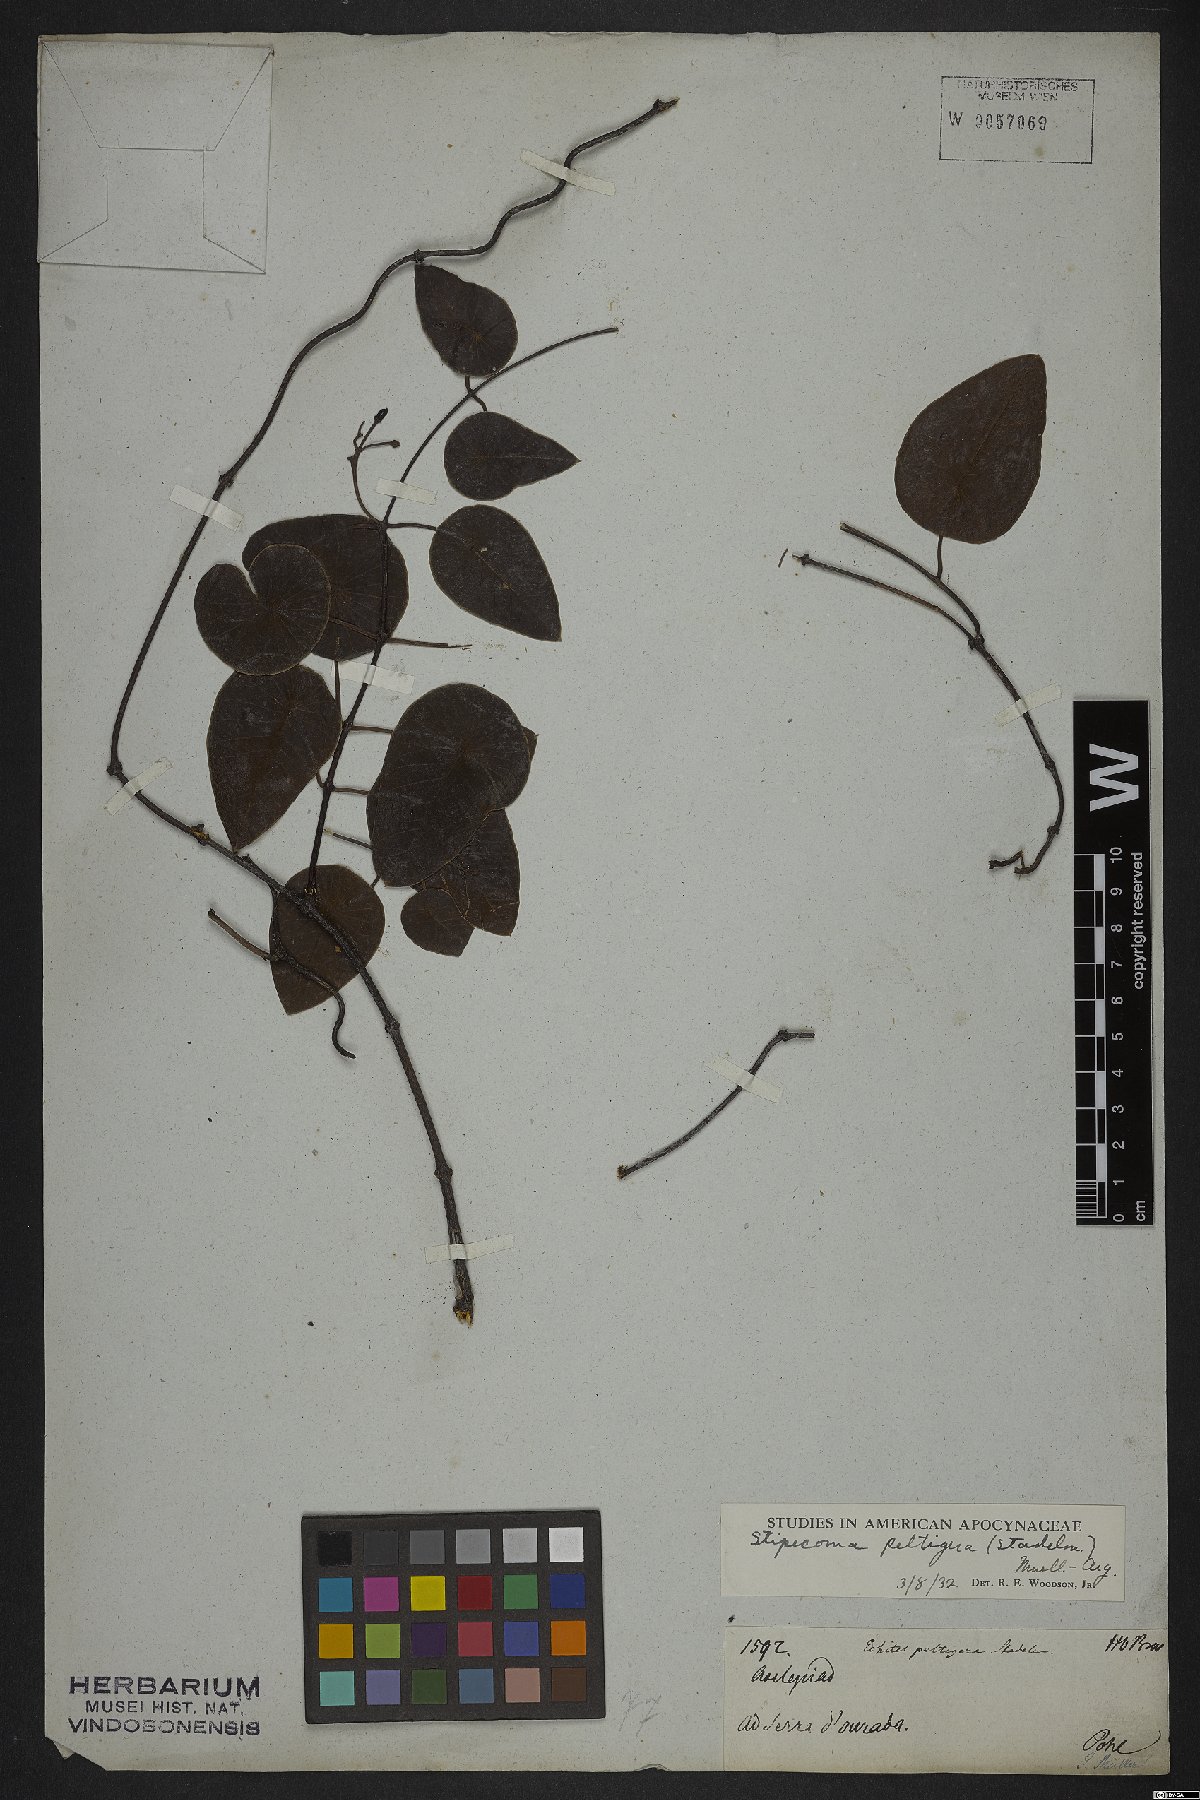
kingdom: Plantae
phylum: Tracheophyta
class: Magnoliopsida
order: Gentianales
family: Apocynaceae
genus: Stipecoma
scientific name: Stipecoma peltigera
